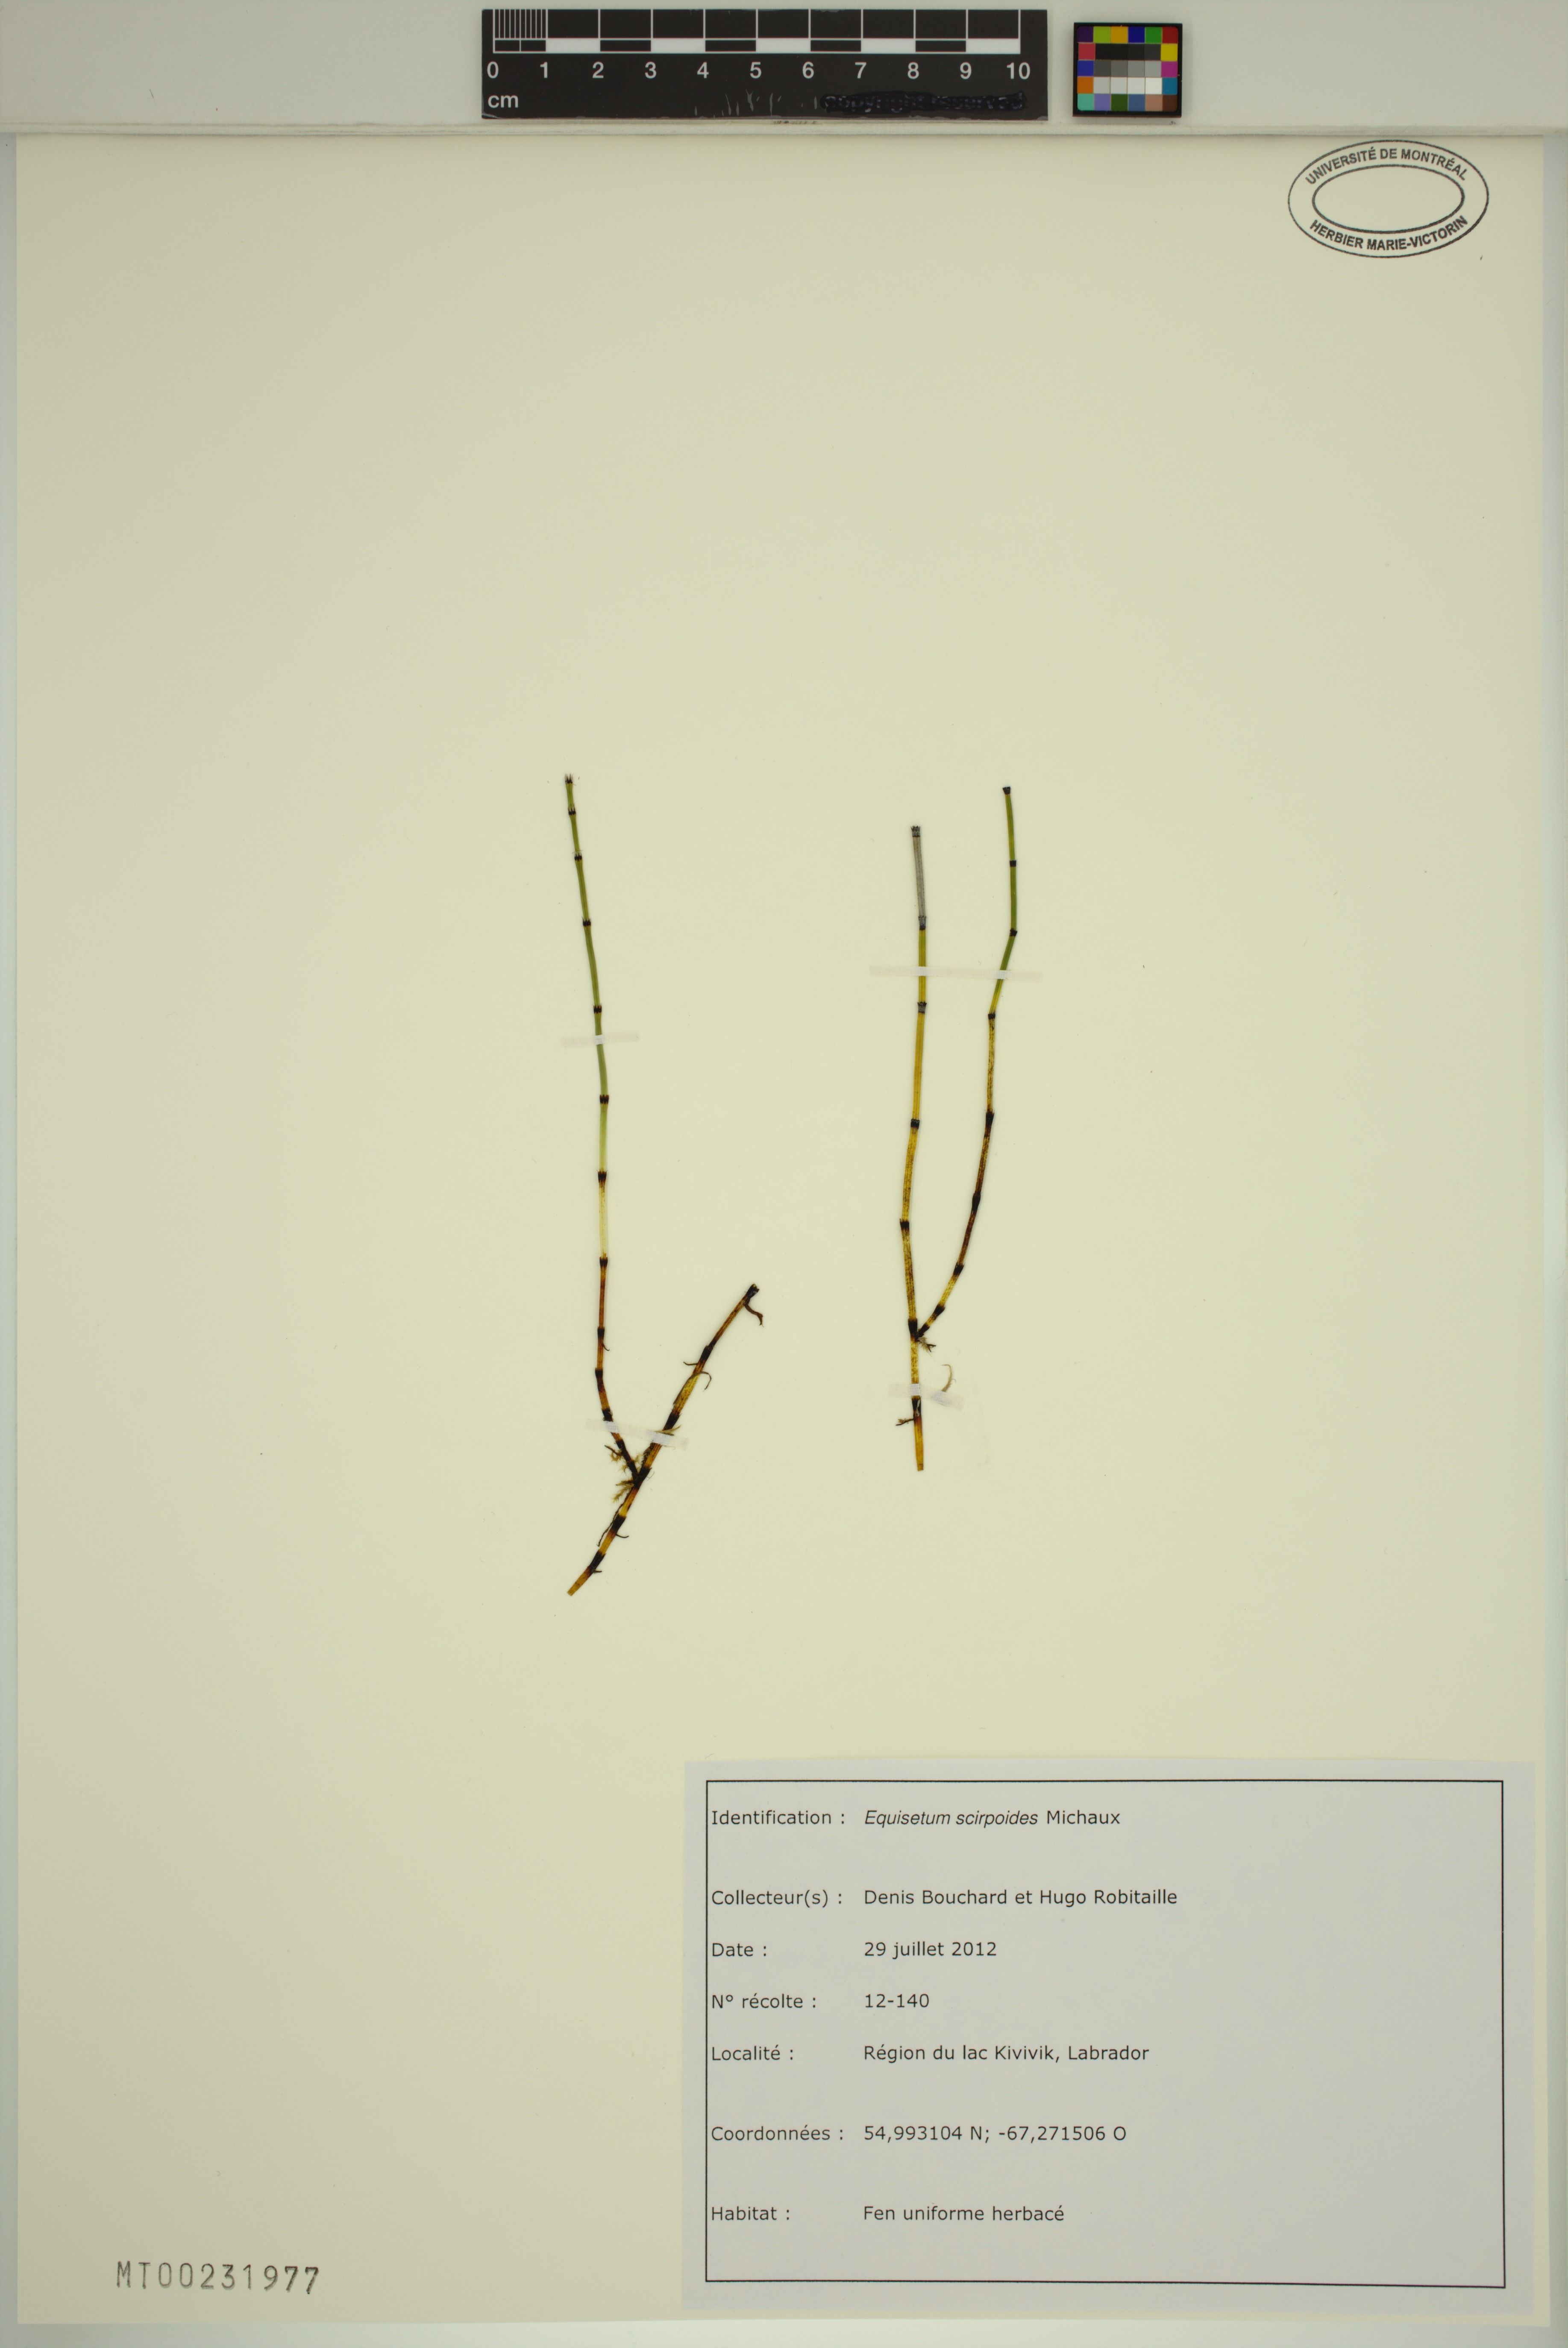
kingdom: Plantae
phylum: Tracheophyta
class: Polypodiopsida
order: Equisetales
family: Equisetaceae
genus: Equisetum
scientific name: Equisetum scirpoides
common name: Delicate horsetail
